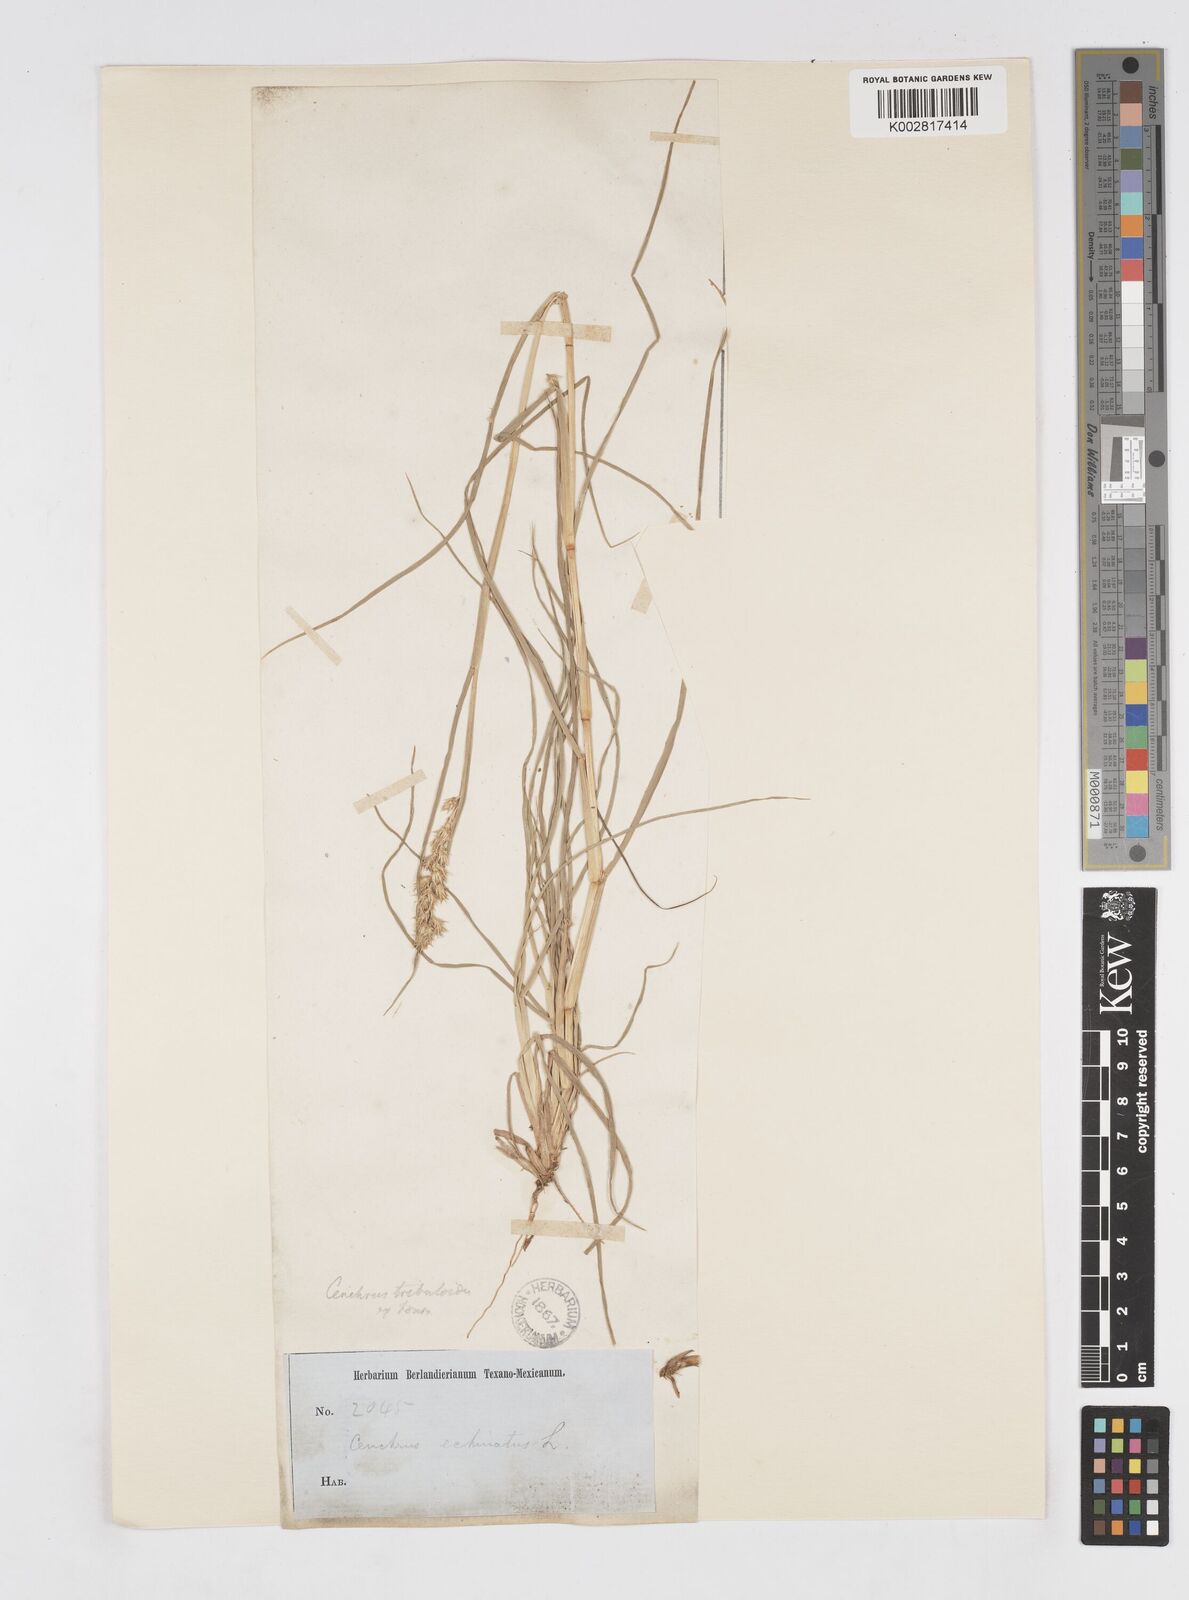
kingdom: Plantae
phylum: Tracheophyta
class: Liliopsida
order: Poales
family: Poaceae
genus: Cenchrus
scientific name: Cenchrus tribuloides
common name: Dune sandbur
